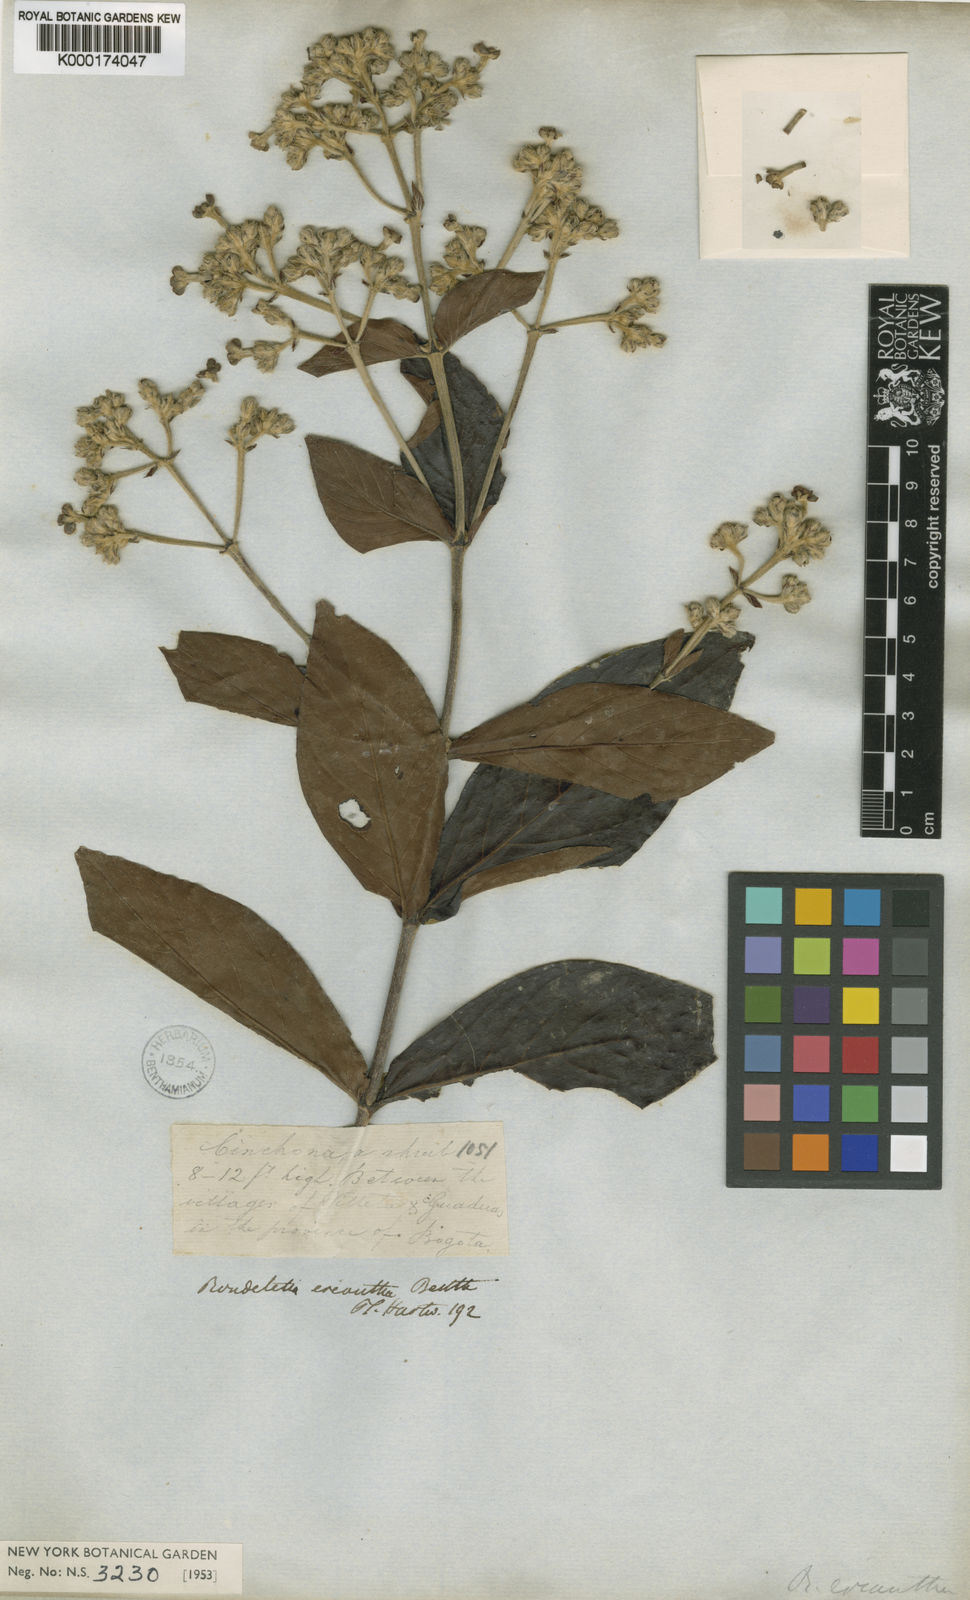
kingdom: Plantae
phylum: Tracheophyta
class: Magnoliopsida
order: Gentianales
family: Rubiaceae
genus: Rondeletia
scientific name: Rondeletia eriantha
